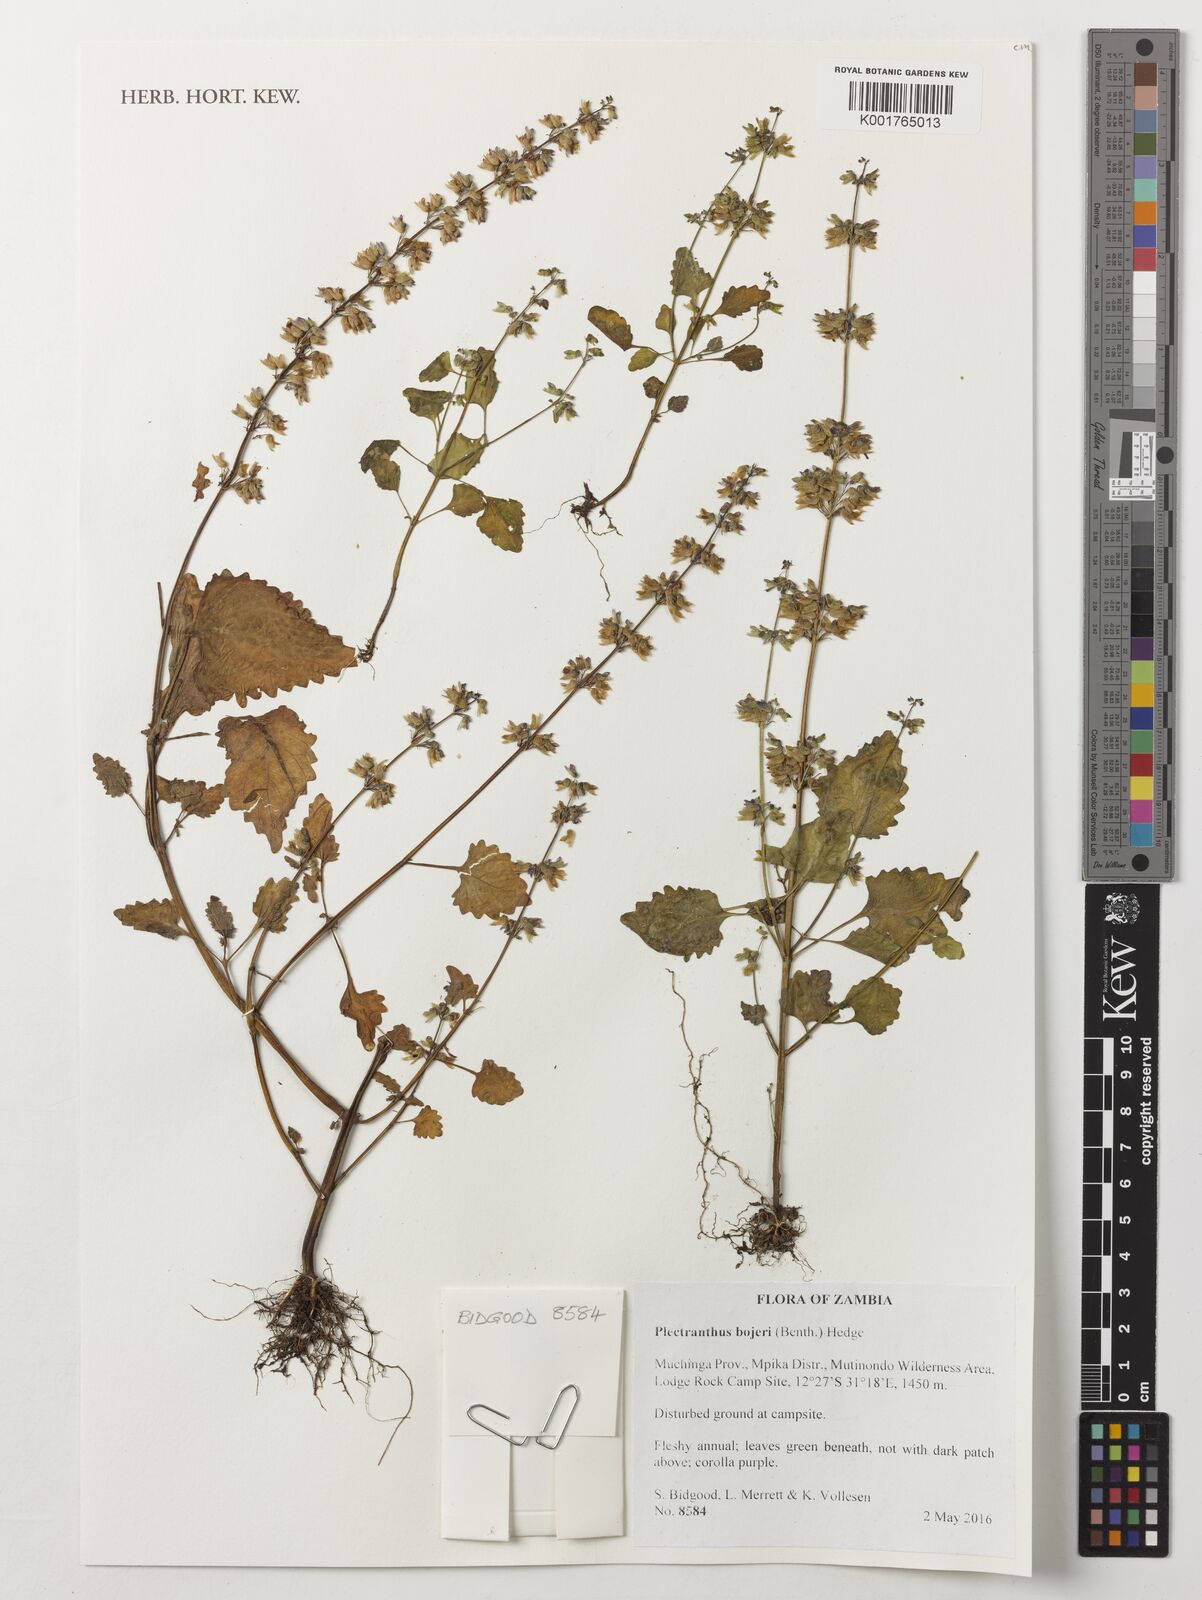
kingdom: Plantae
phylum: Tracheophyta
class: Magnoliopsida
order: Lamiales
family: Lamiaceae
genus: Coleus
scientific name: Coleus bojeri
